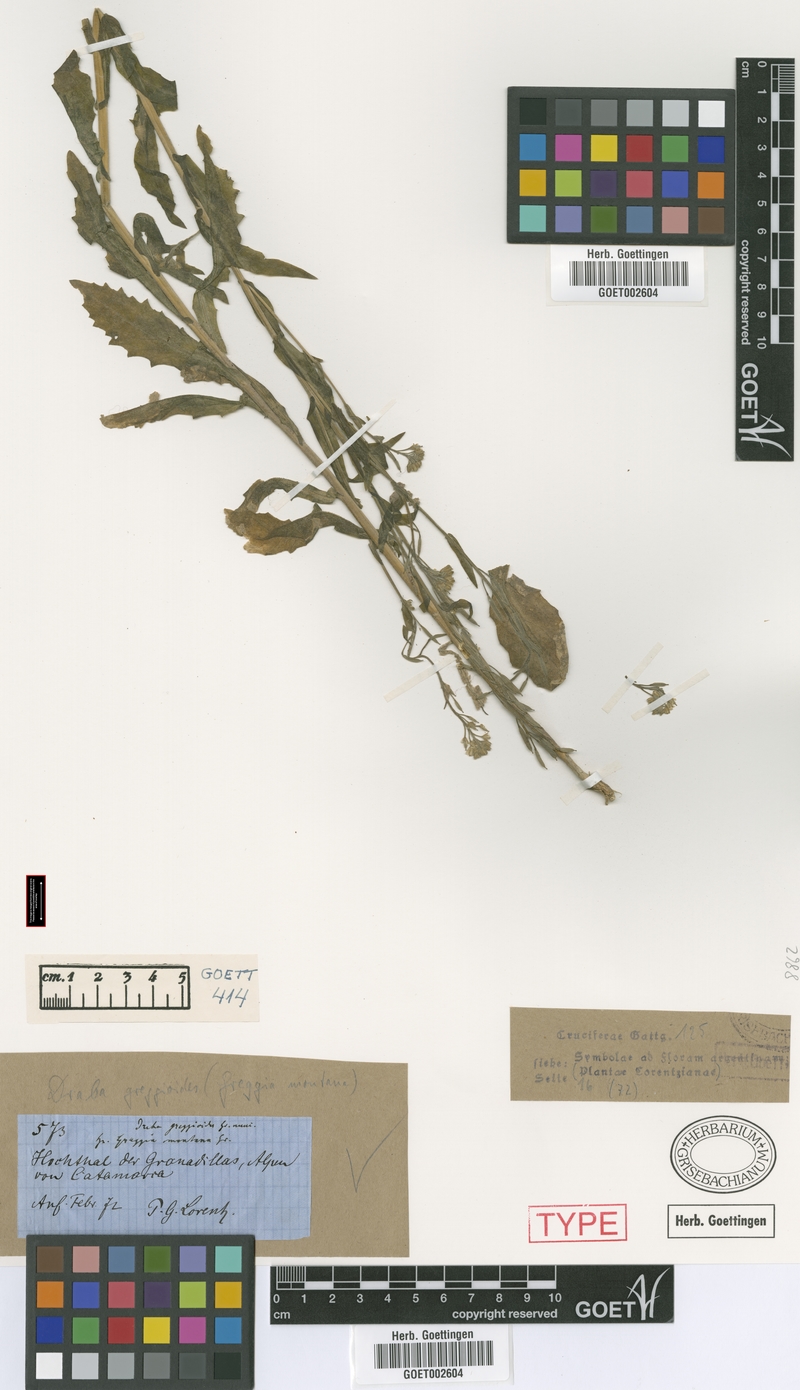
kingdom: Plantae
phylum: Tracheophyta
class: Magnoliopsida
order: Brassicales
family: Brassicaceae
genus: Exhalimolobos
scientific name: Exhalimolobos weddellii
